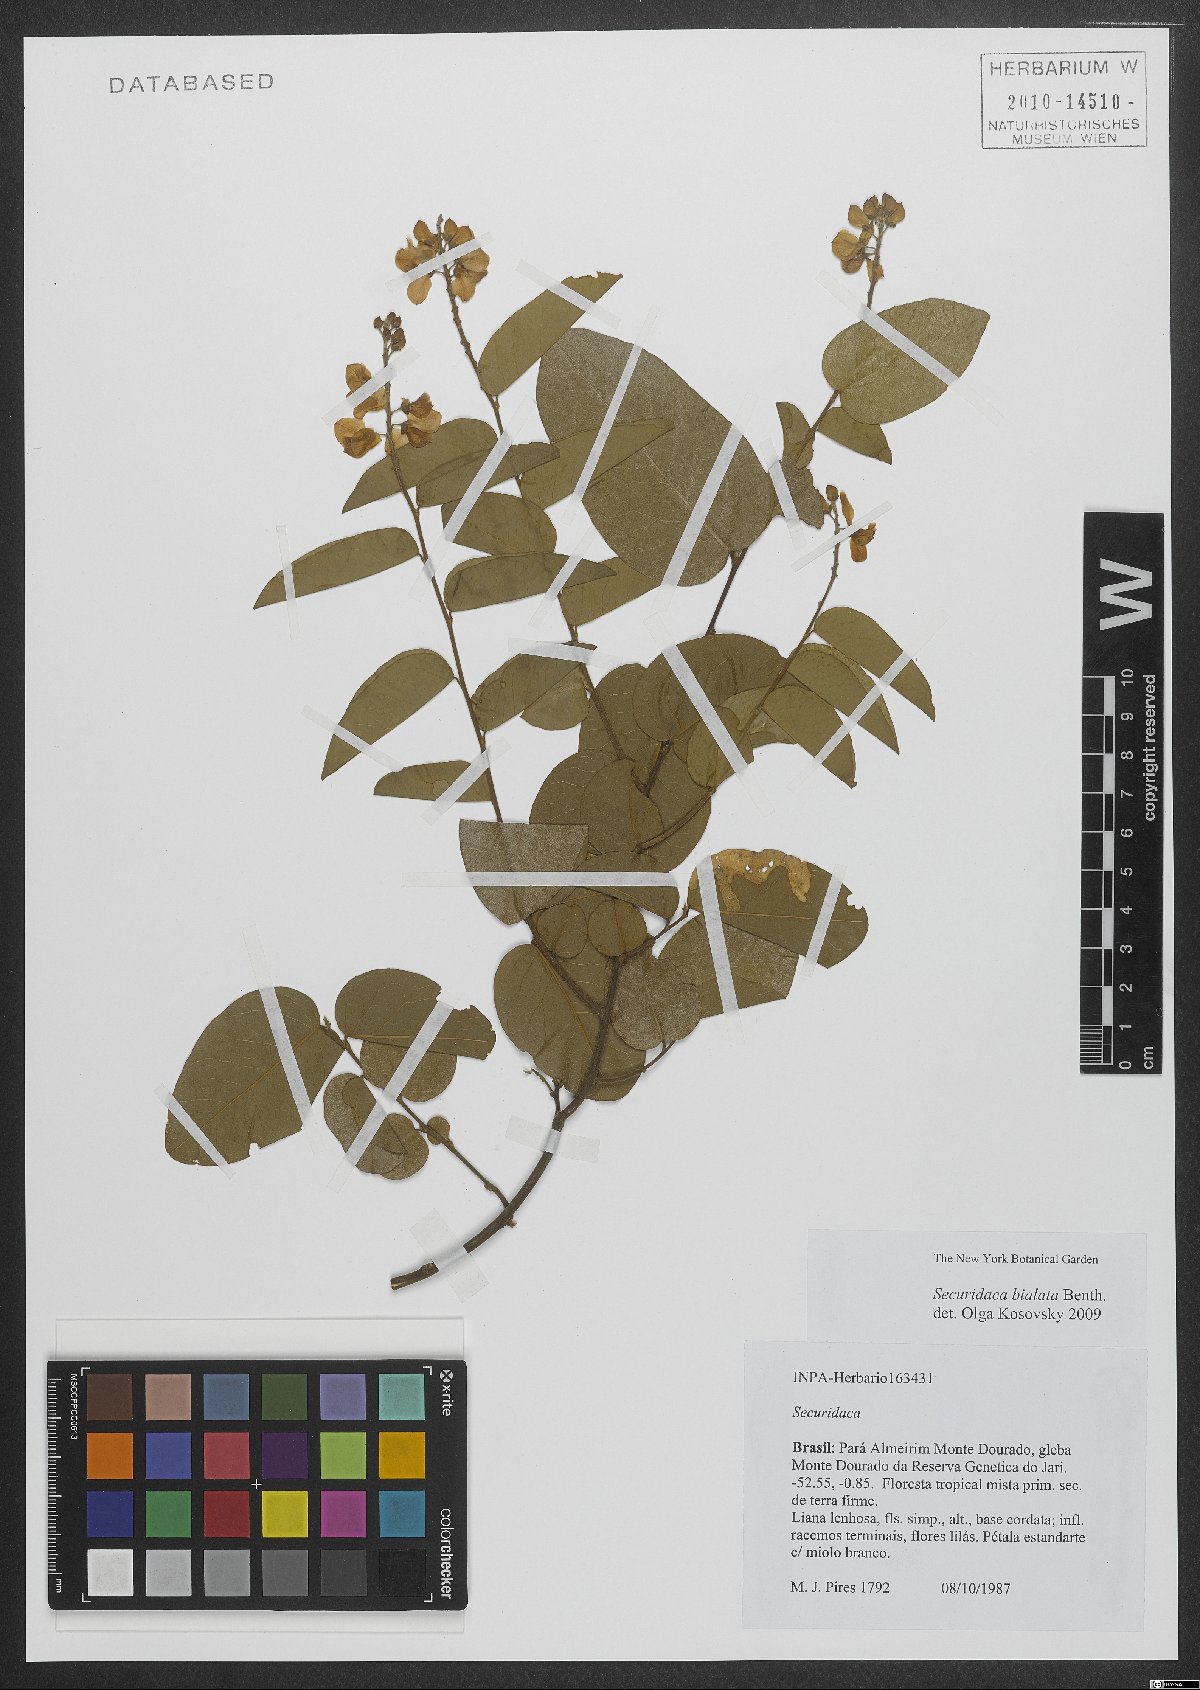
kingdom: Plantae
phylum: Tracheophyta
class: Magnoliopsida
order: Fabales
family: Polygalaceae
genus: Securidaca
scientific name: Securidaca bialata
